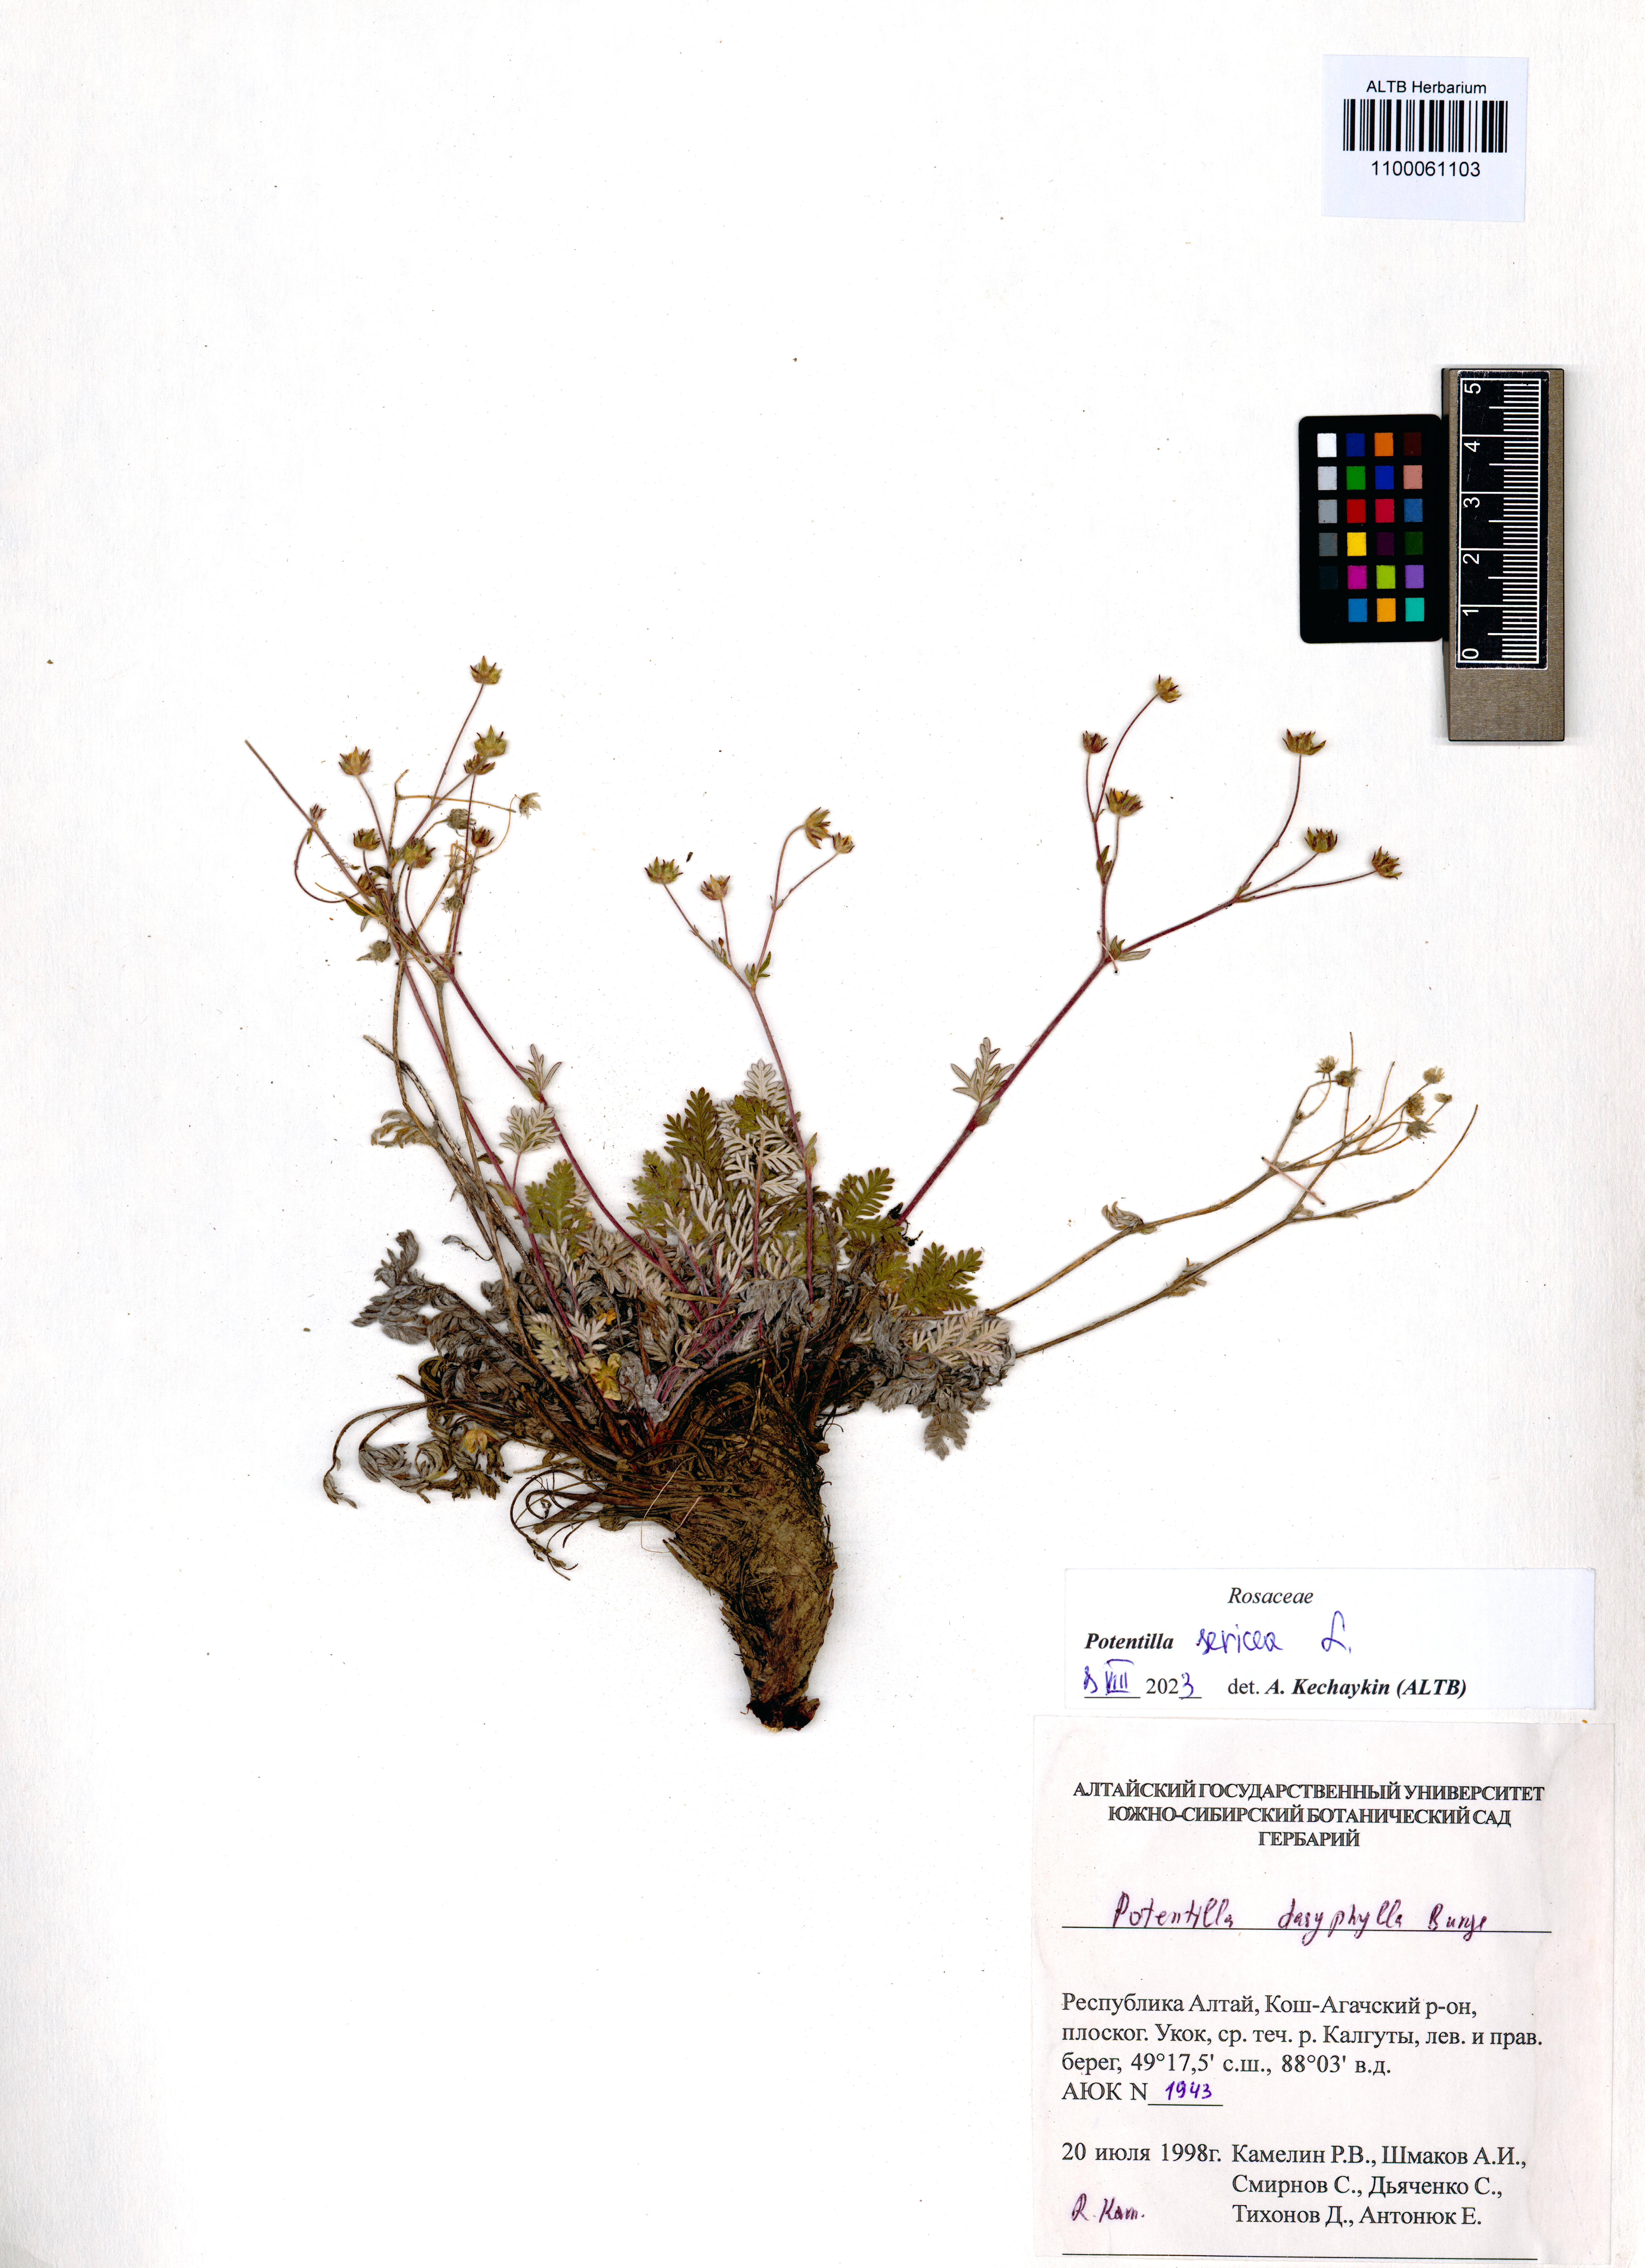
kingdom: Plantae
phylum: Tracheophyta
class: Magnoliopsida
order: Rosales
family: Rosaceae
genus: Potentilla
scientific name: Potentilla sericea
